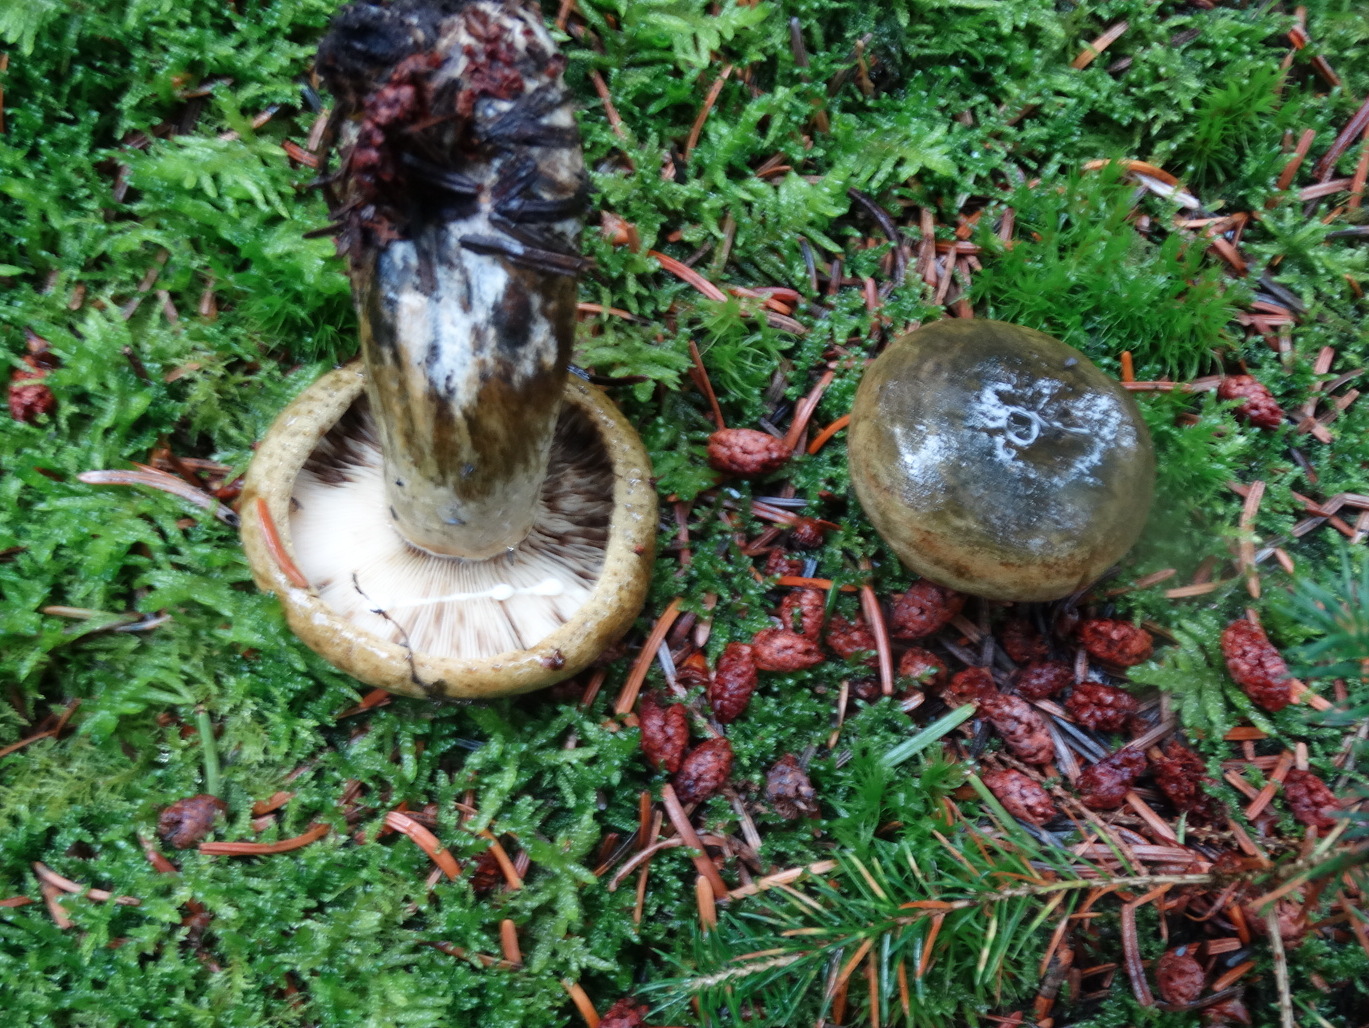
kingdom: Fungi
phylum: Basidiomycota
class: Agaricomycetes
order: Russulales
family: Russulaceae
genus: Lactarius
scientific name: Lactarius necator
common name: manddraber-mælkehat
